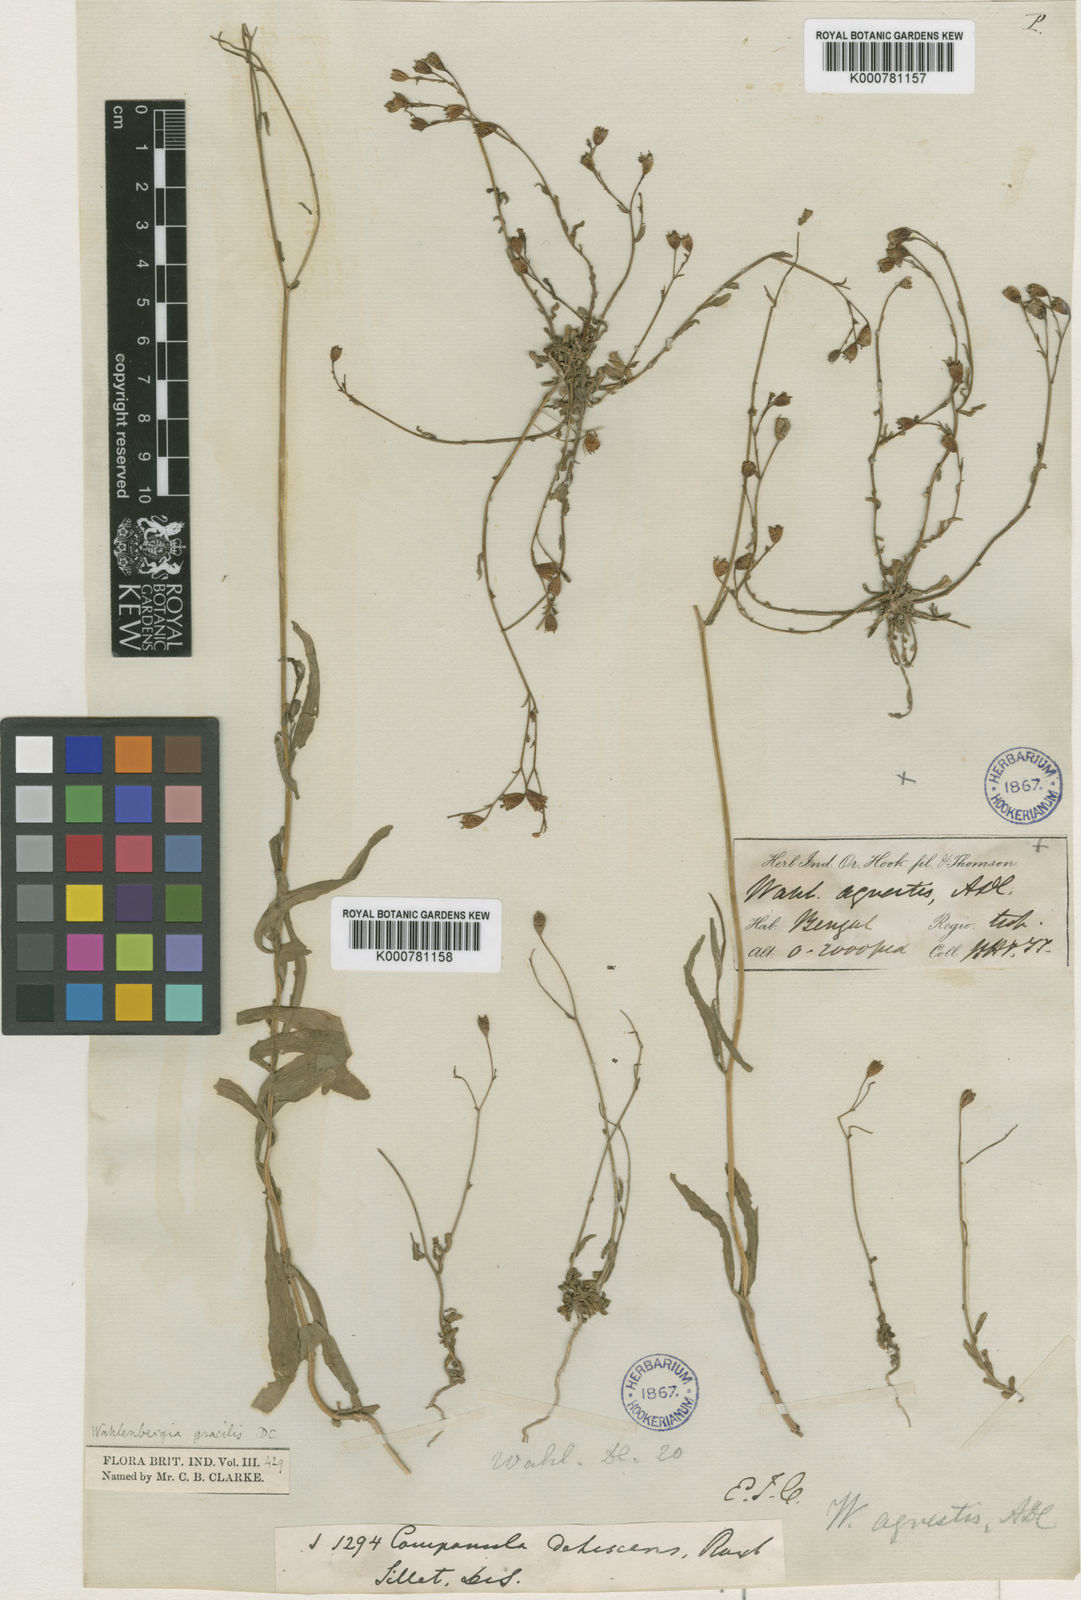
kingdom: Plantae
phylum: Tracheophyta
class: Magnoliopsida
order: Asterales
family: Campanulaceae
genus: Wahlenbergia
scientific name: Wahlenbergia marginata
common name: Southern rockbell
